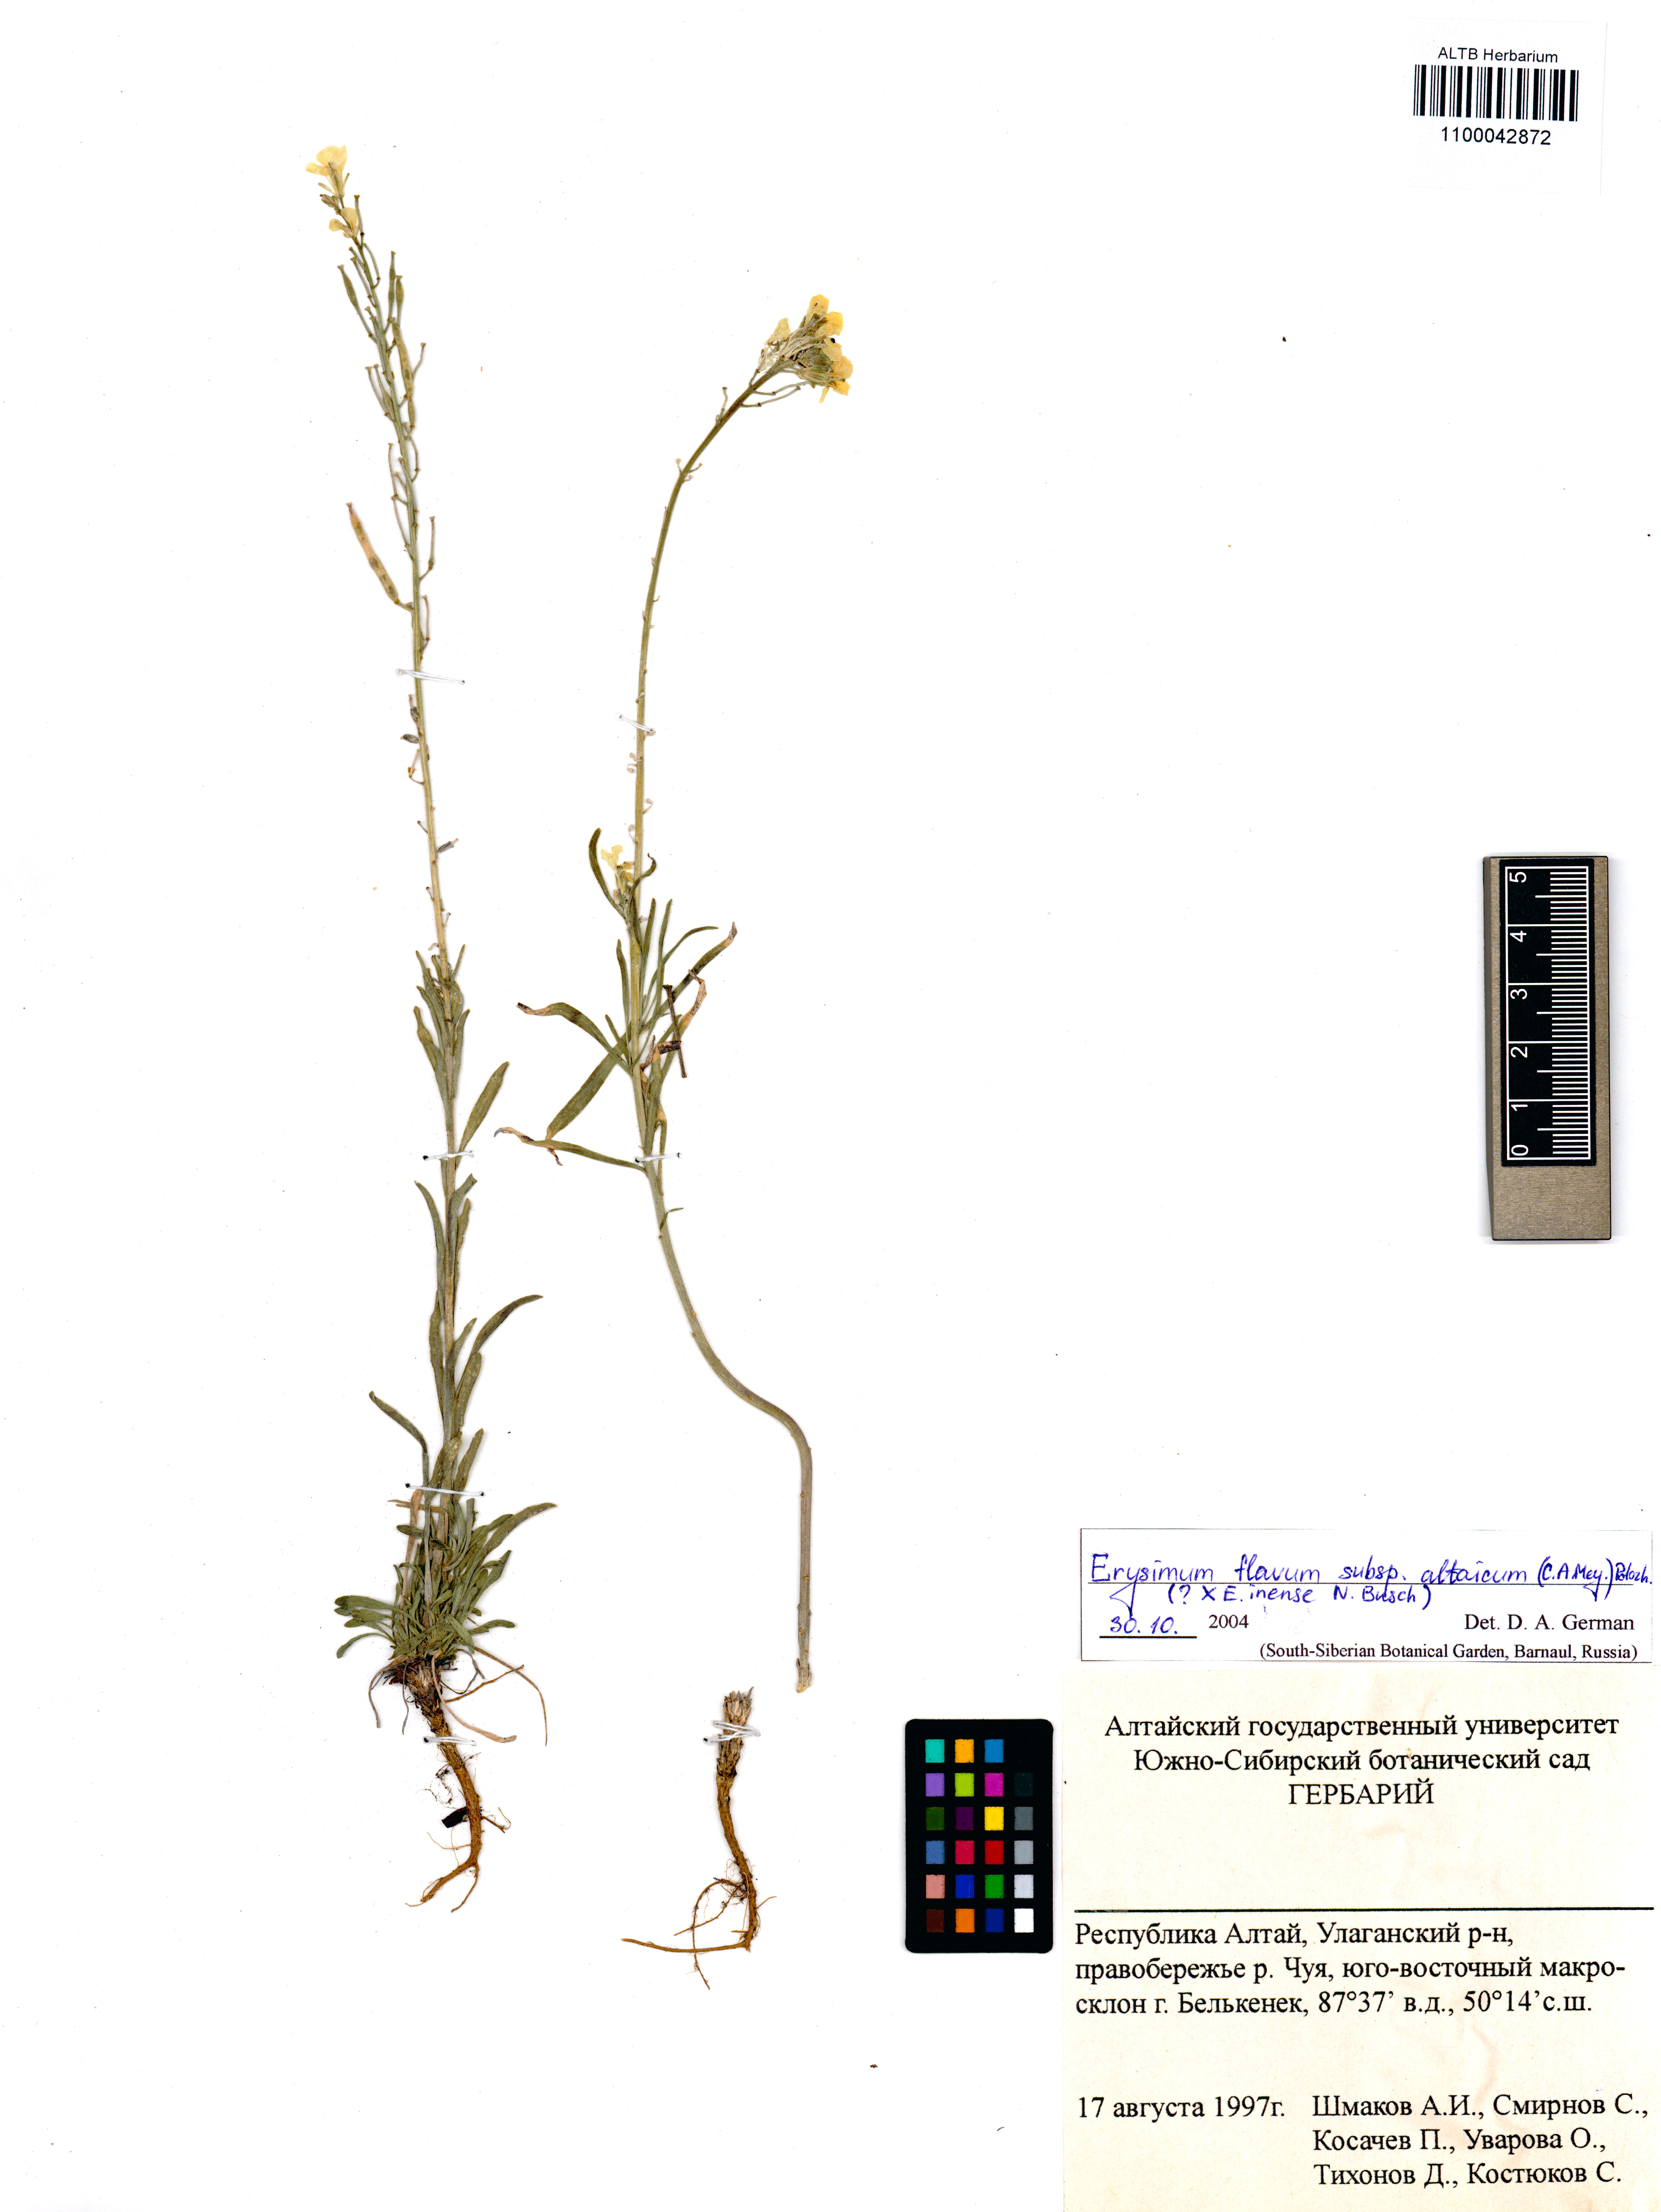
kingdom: Plantae
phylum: Tracheophyta
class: Magnoliopsida
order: Brassicales
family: Brassicaceae
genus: Erysimum
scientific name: Erysimum flavum
